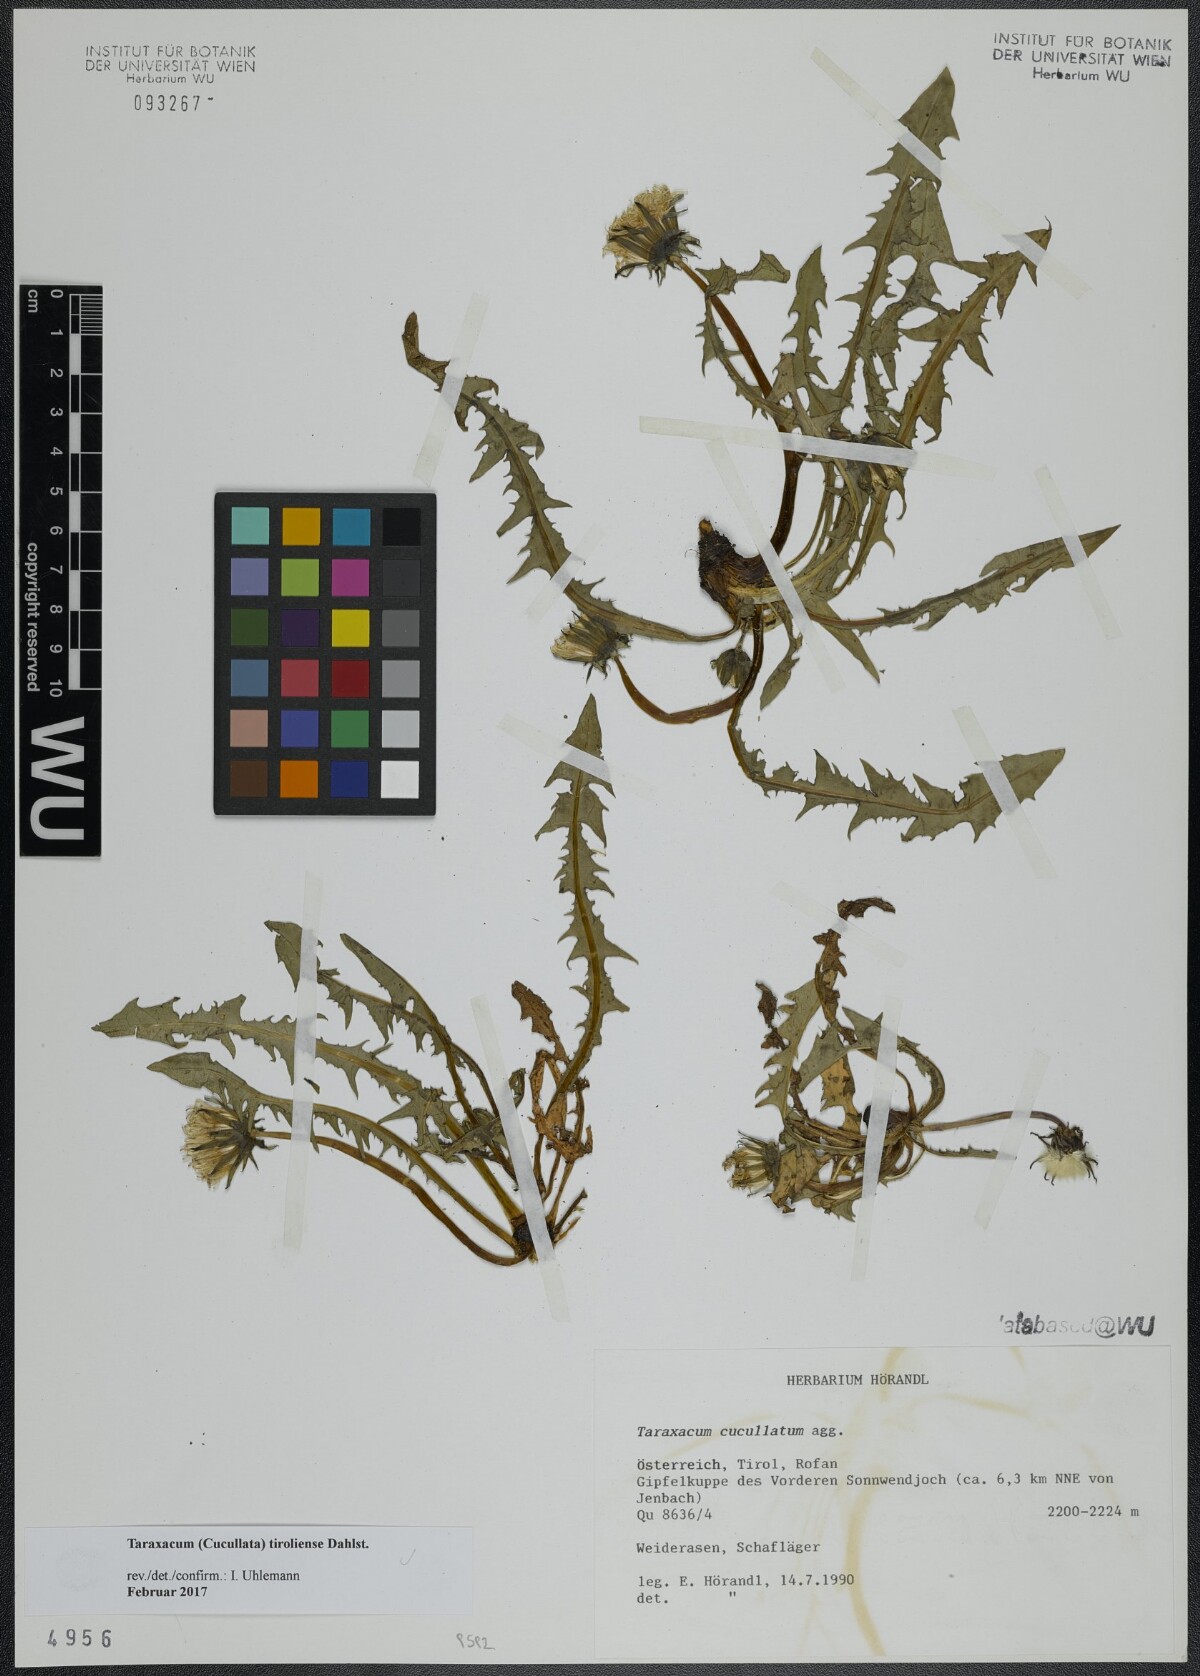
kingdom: Plantae
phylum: Tracheophyta
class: Magnoliopsida
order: Asterales
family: Asteraceae
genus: Taraxacum
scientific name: Taraxacum tiroliense
